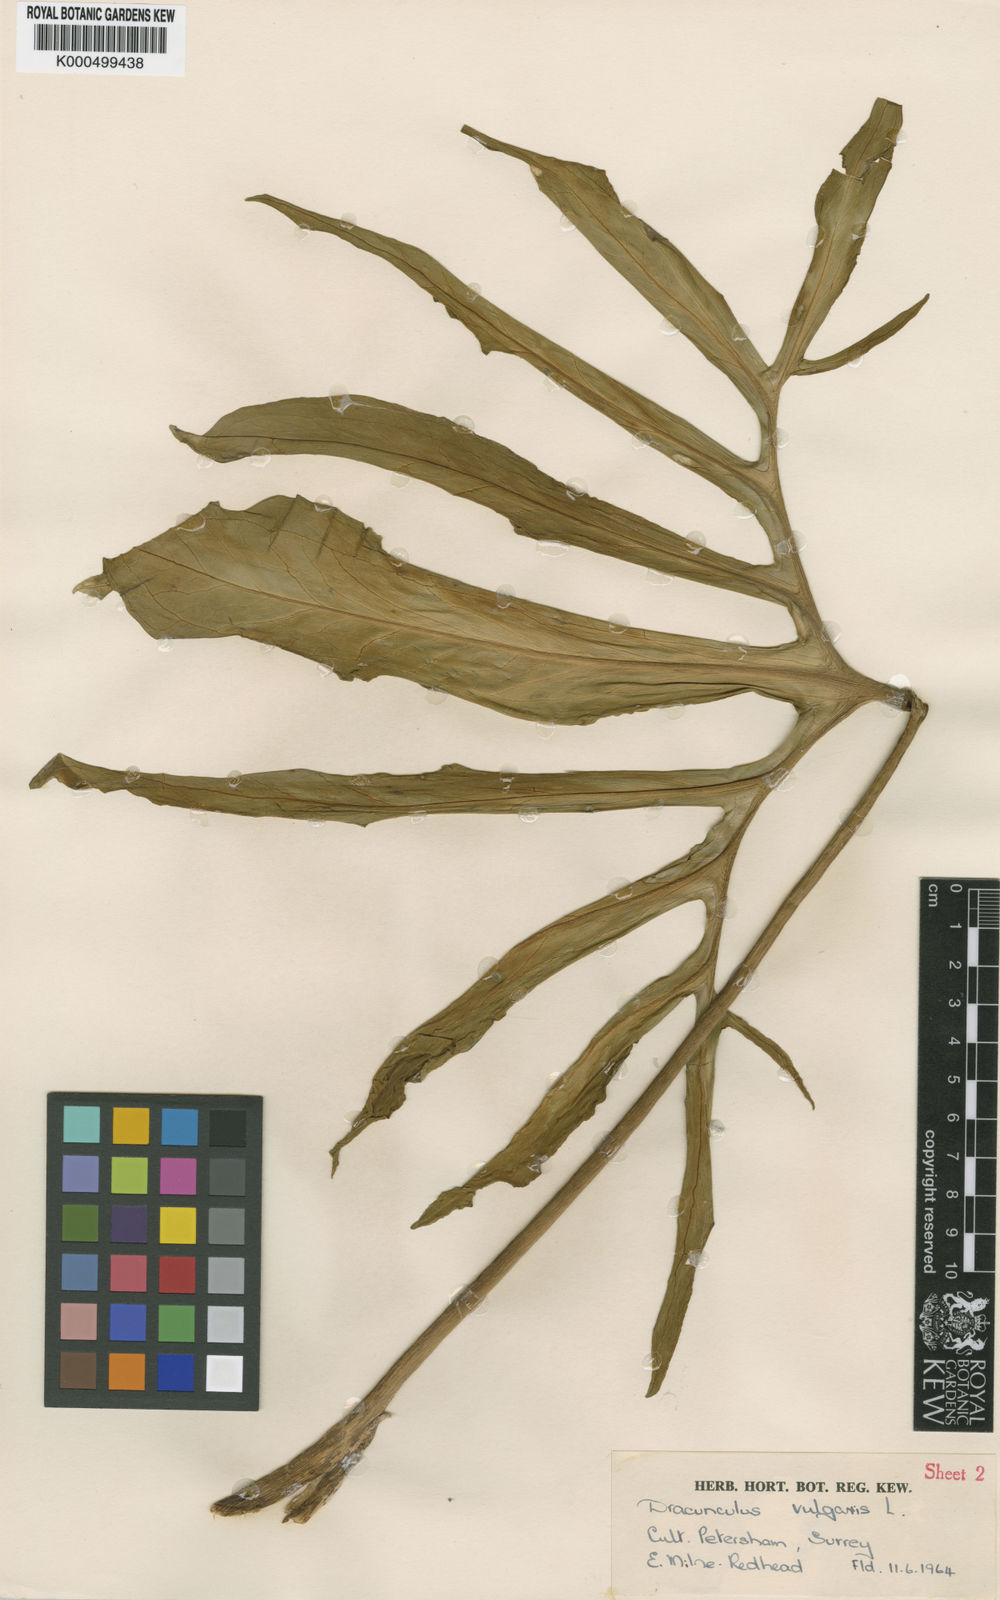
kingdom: Plantae
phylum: Tracheophyta
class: Liliopsida
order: Alismatales
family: Araceae
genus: Dracunculus
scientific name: Dracunculus
